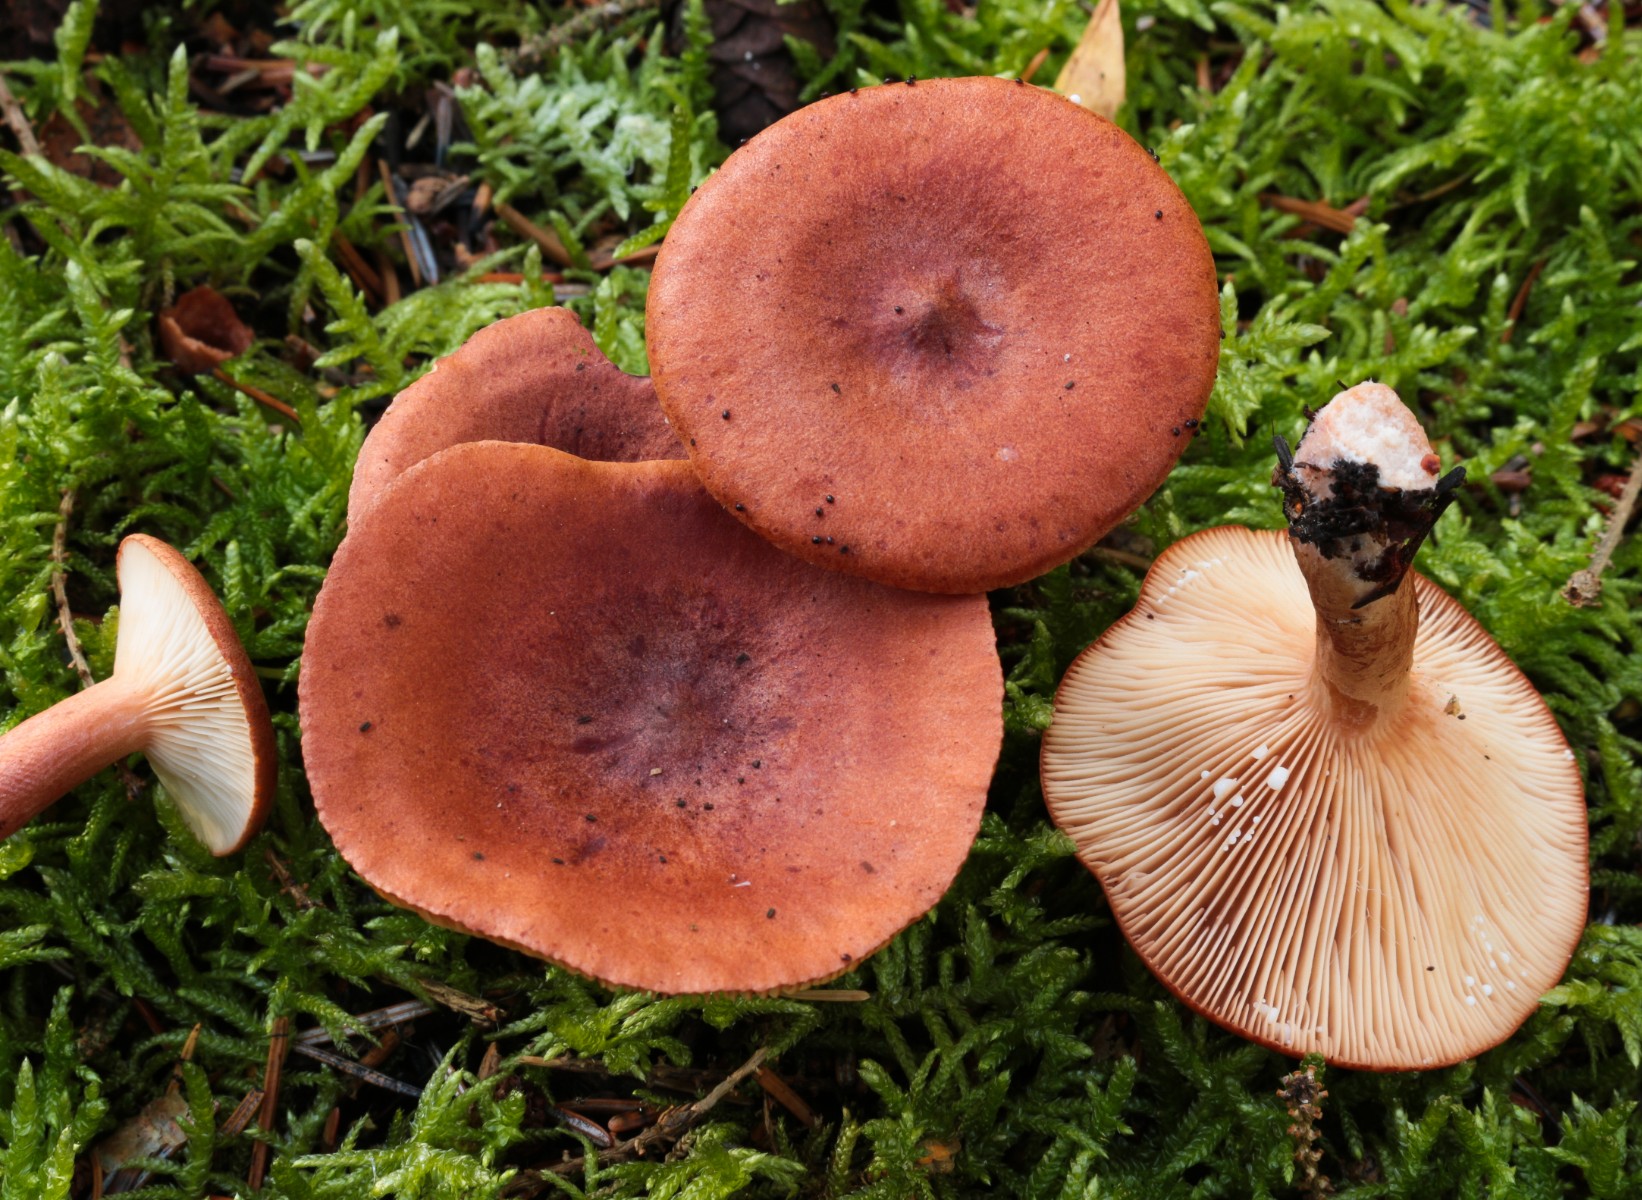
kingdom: Fungi
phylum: Basidiomycota
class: Agaricomycetes
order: Russulales
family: Russulaceae
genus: Lactarius
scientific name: Lactarius rufus
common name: rødbrun mælkehat
